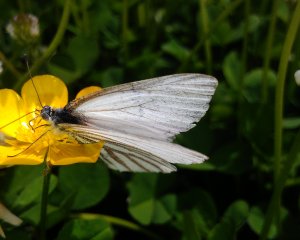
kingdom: Animalia
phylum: Arthropoda
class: Insecta
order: Lepidoptera
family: Pieridae
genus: Pieris
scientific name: Pieris oleracea
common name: Mustard White
